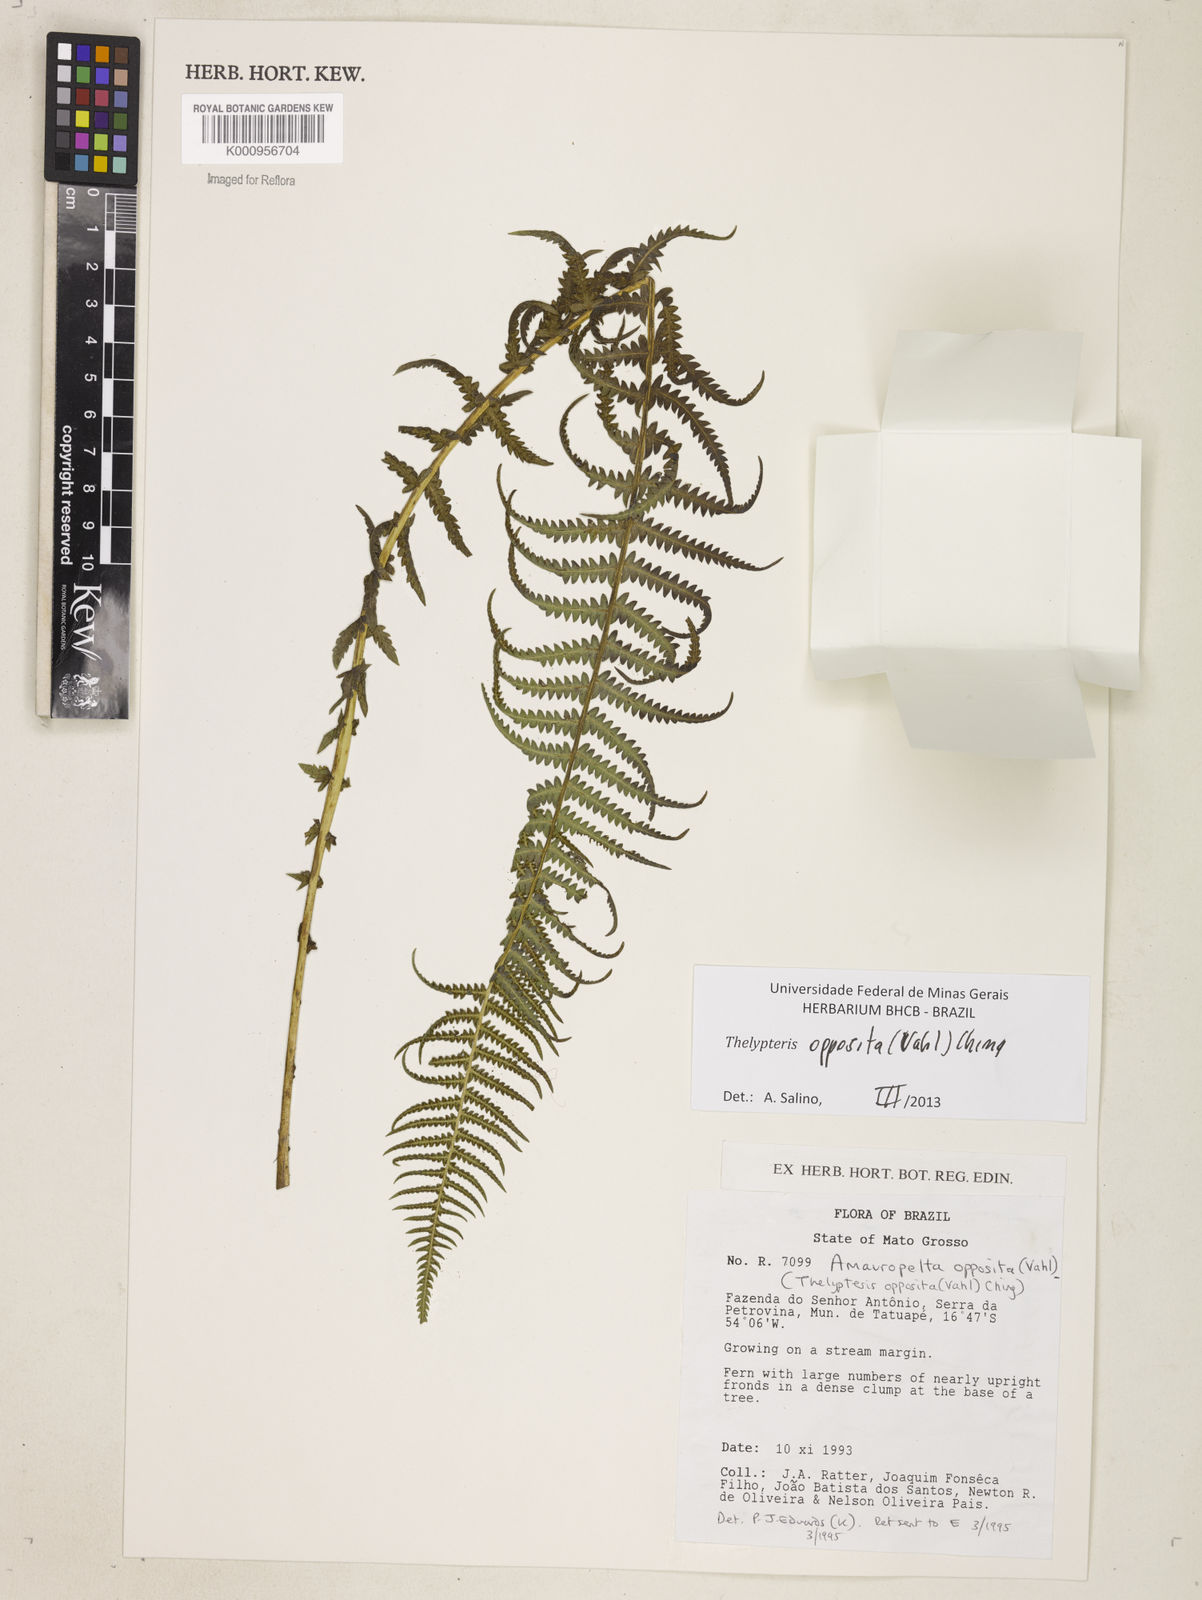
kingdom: Plantae
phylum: Tracheophyta
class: Polypodiopsida
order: Polypodiales
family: Thelypteridaceae
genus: Amauropelta
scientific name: Amauropelta opposita
